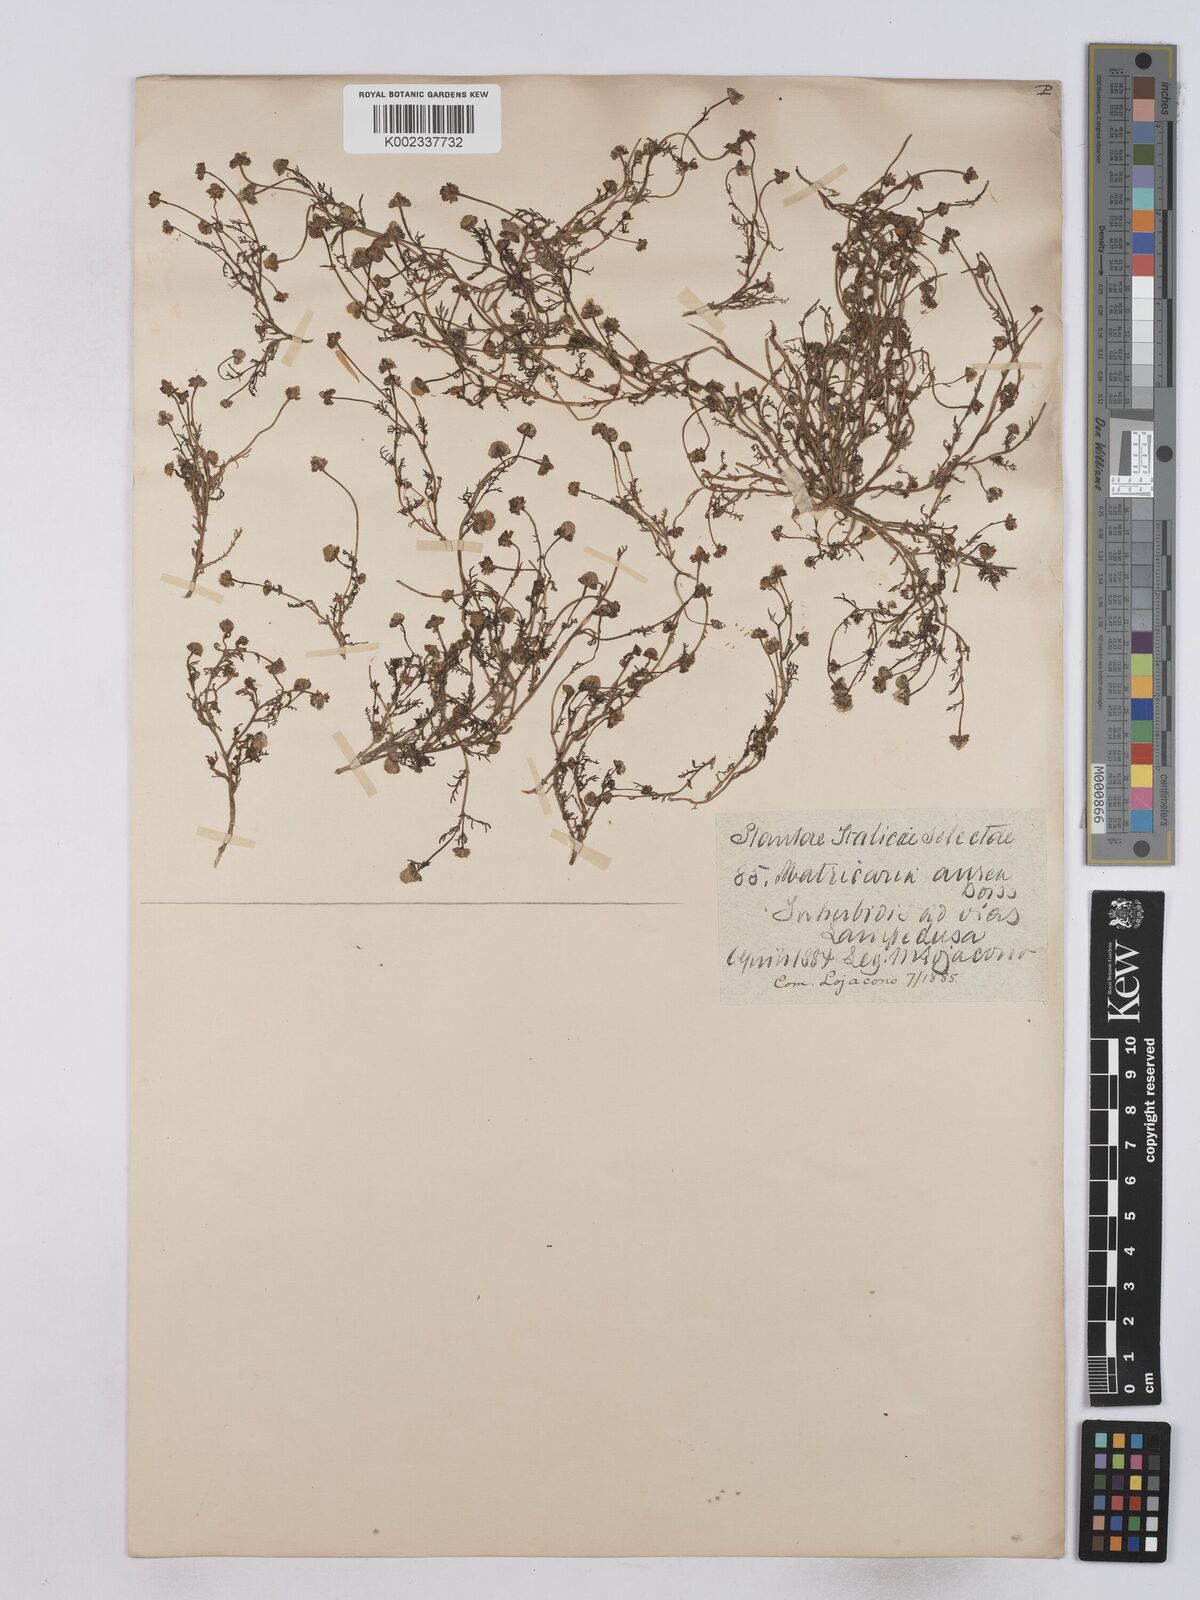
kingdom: Plantae
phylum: Tracheophyta
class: Magnoliopsida
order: Asterales
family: Asteraceae
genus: Matricaria
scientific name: Matricaria aurea
